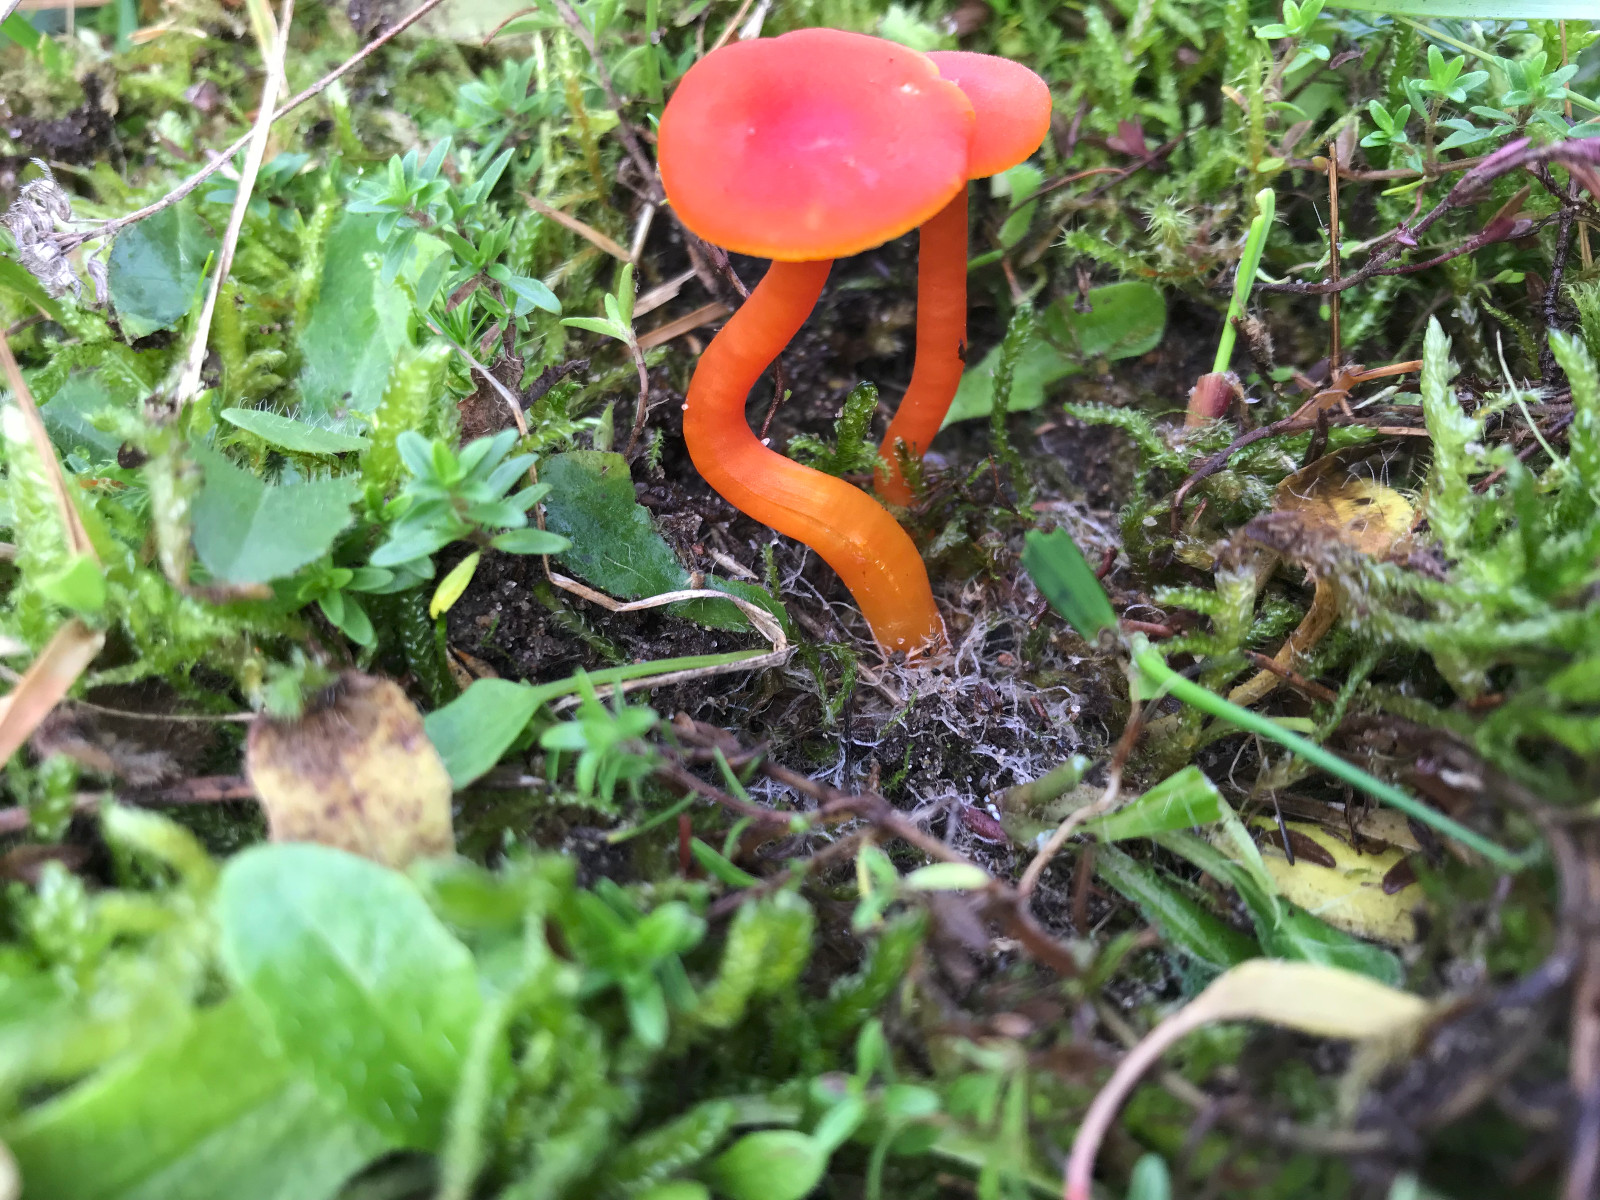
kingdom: Fungi
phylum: Basidiomycota
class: Agaricomycetes
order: Agaricales
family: Hygrophoraceae
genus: Hygrocybe
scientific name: Hygrocybe miniata
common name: mønje-vokshat
